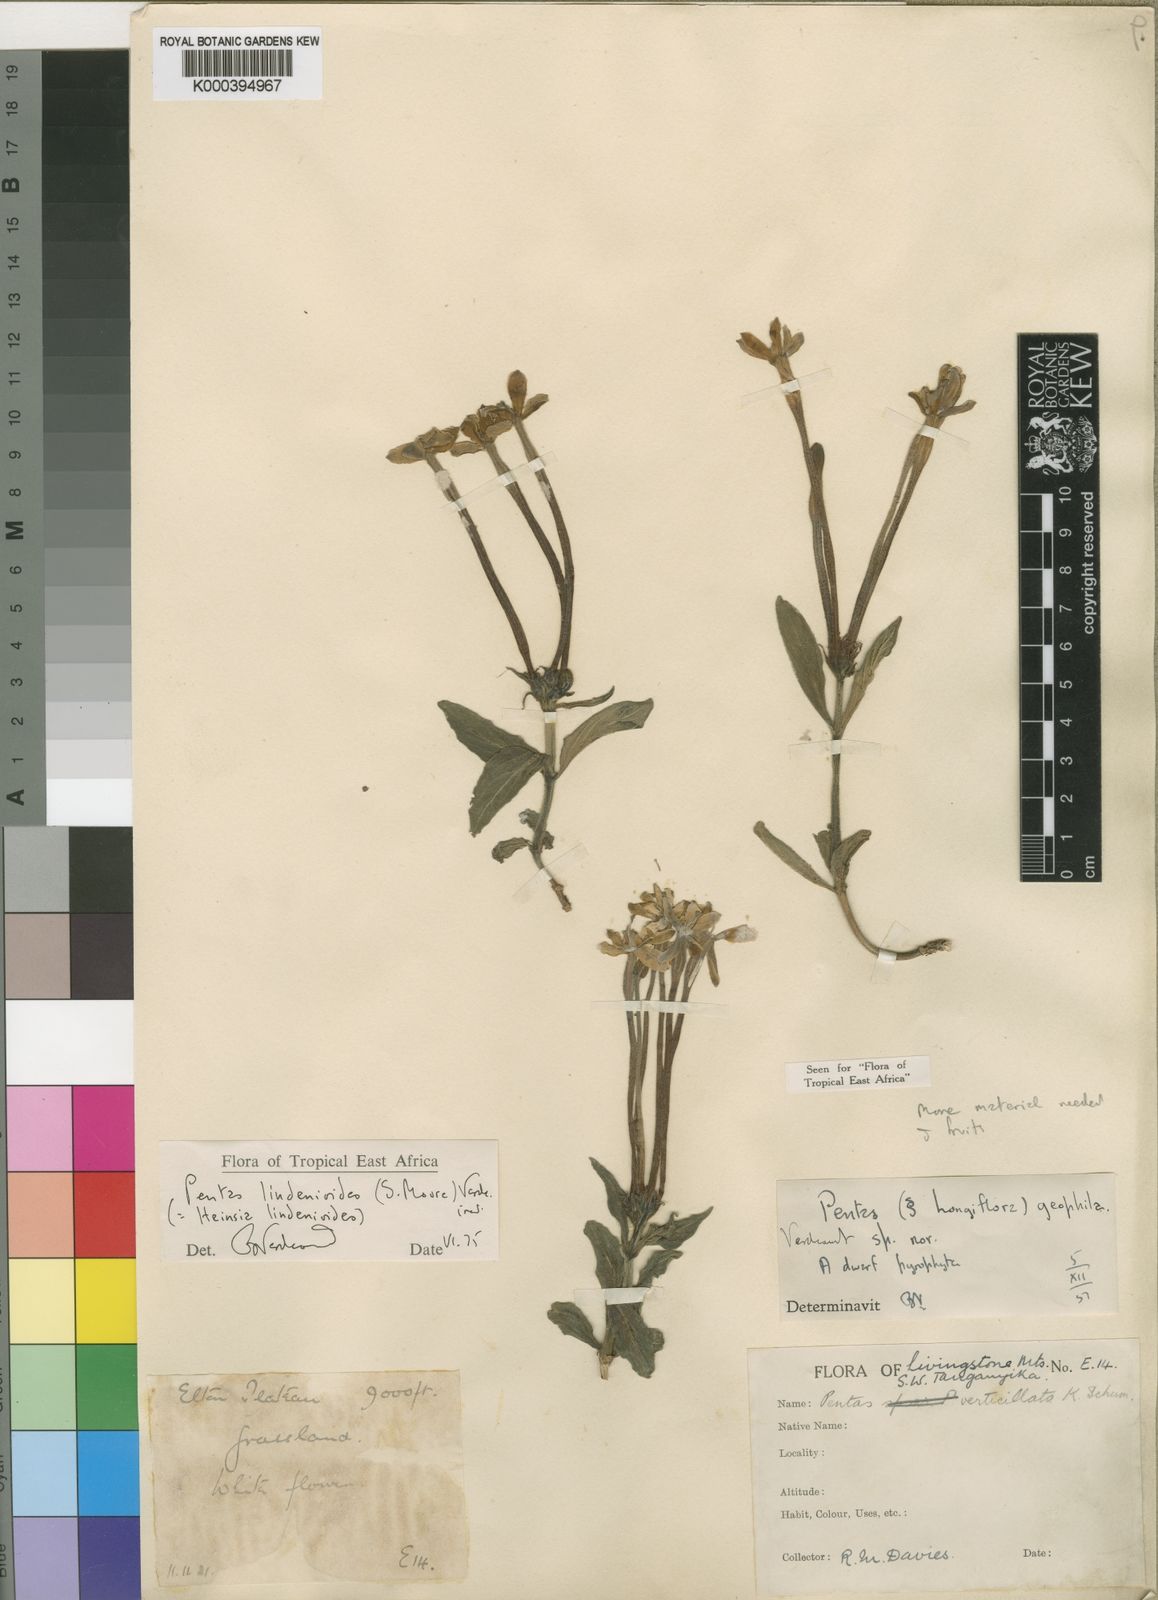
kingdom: Plantae
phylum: Tracheophyta
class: Magnoliopsida
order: Gentianales
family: Rubiaceae
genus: Dolichopentas
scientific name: Dolichopentas
